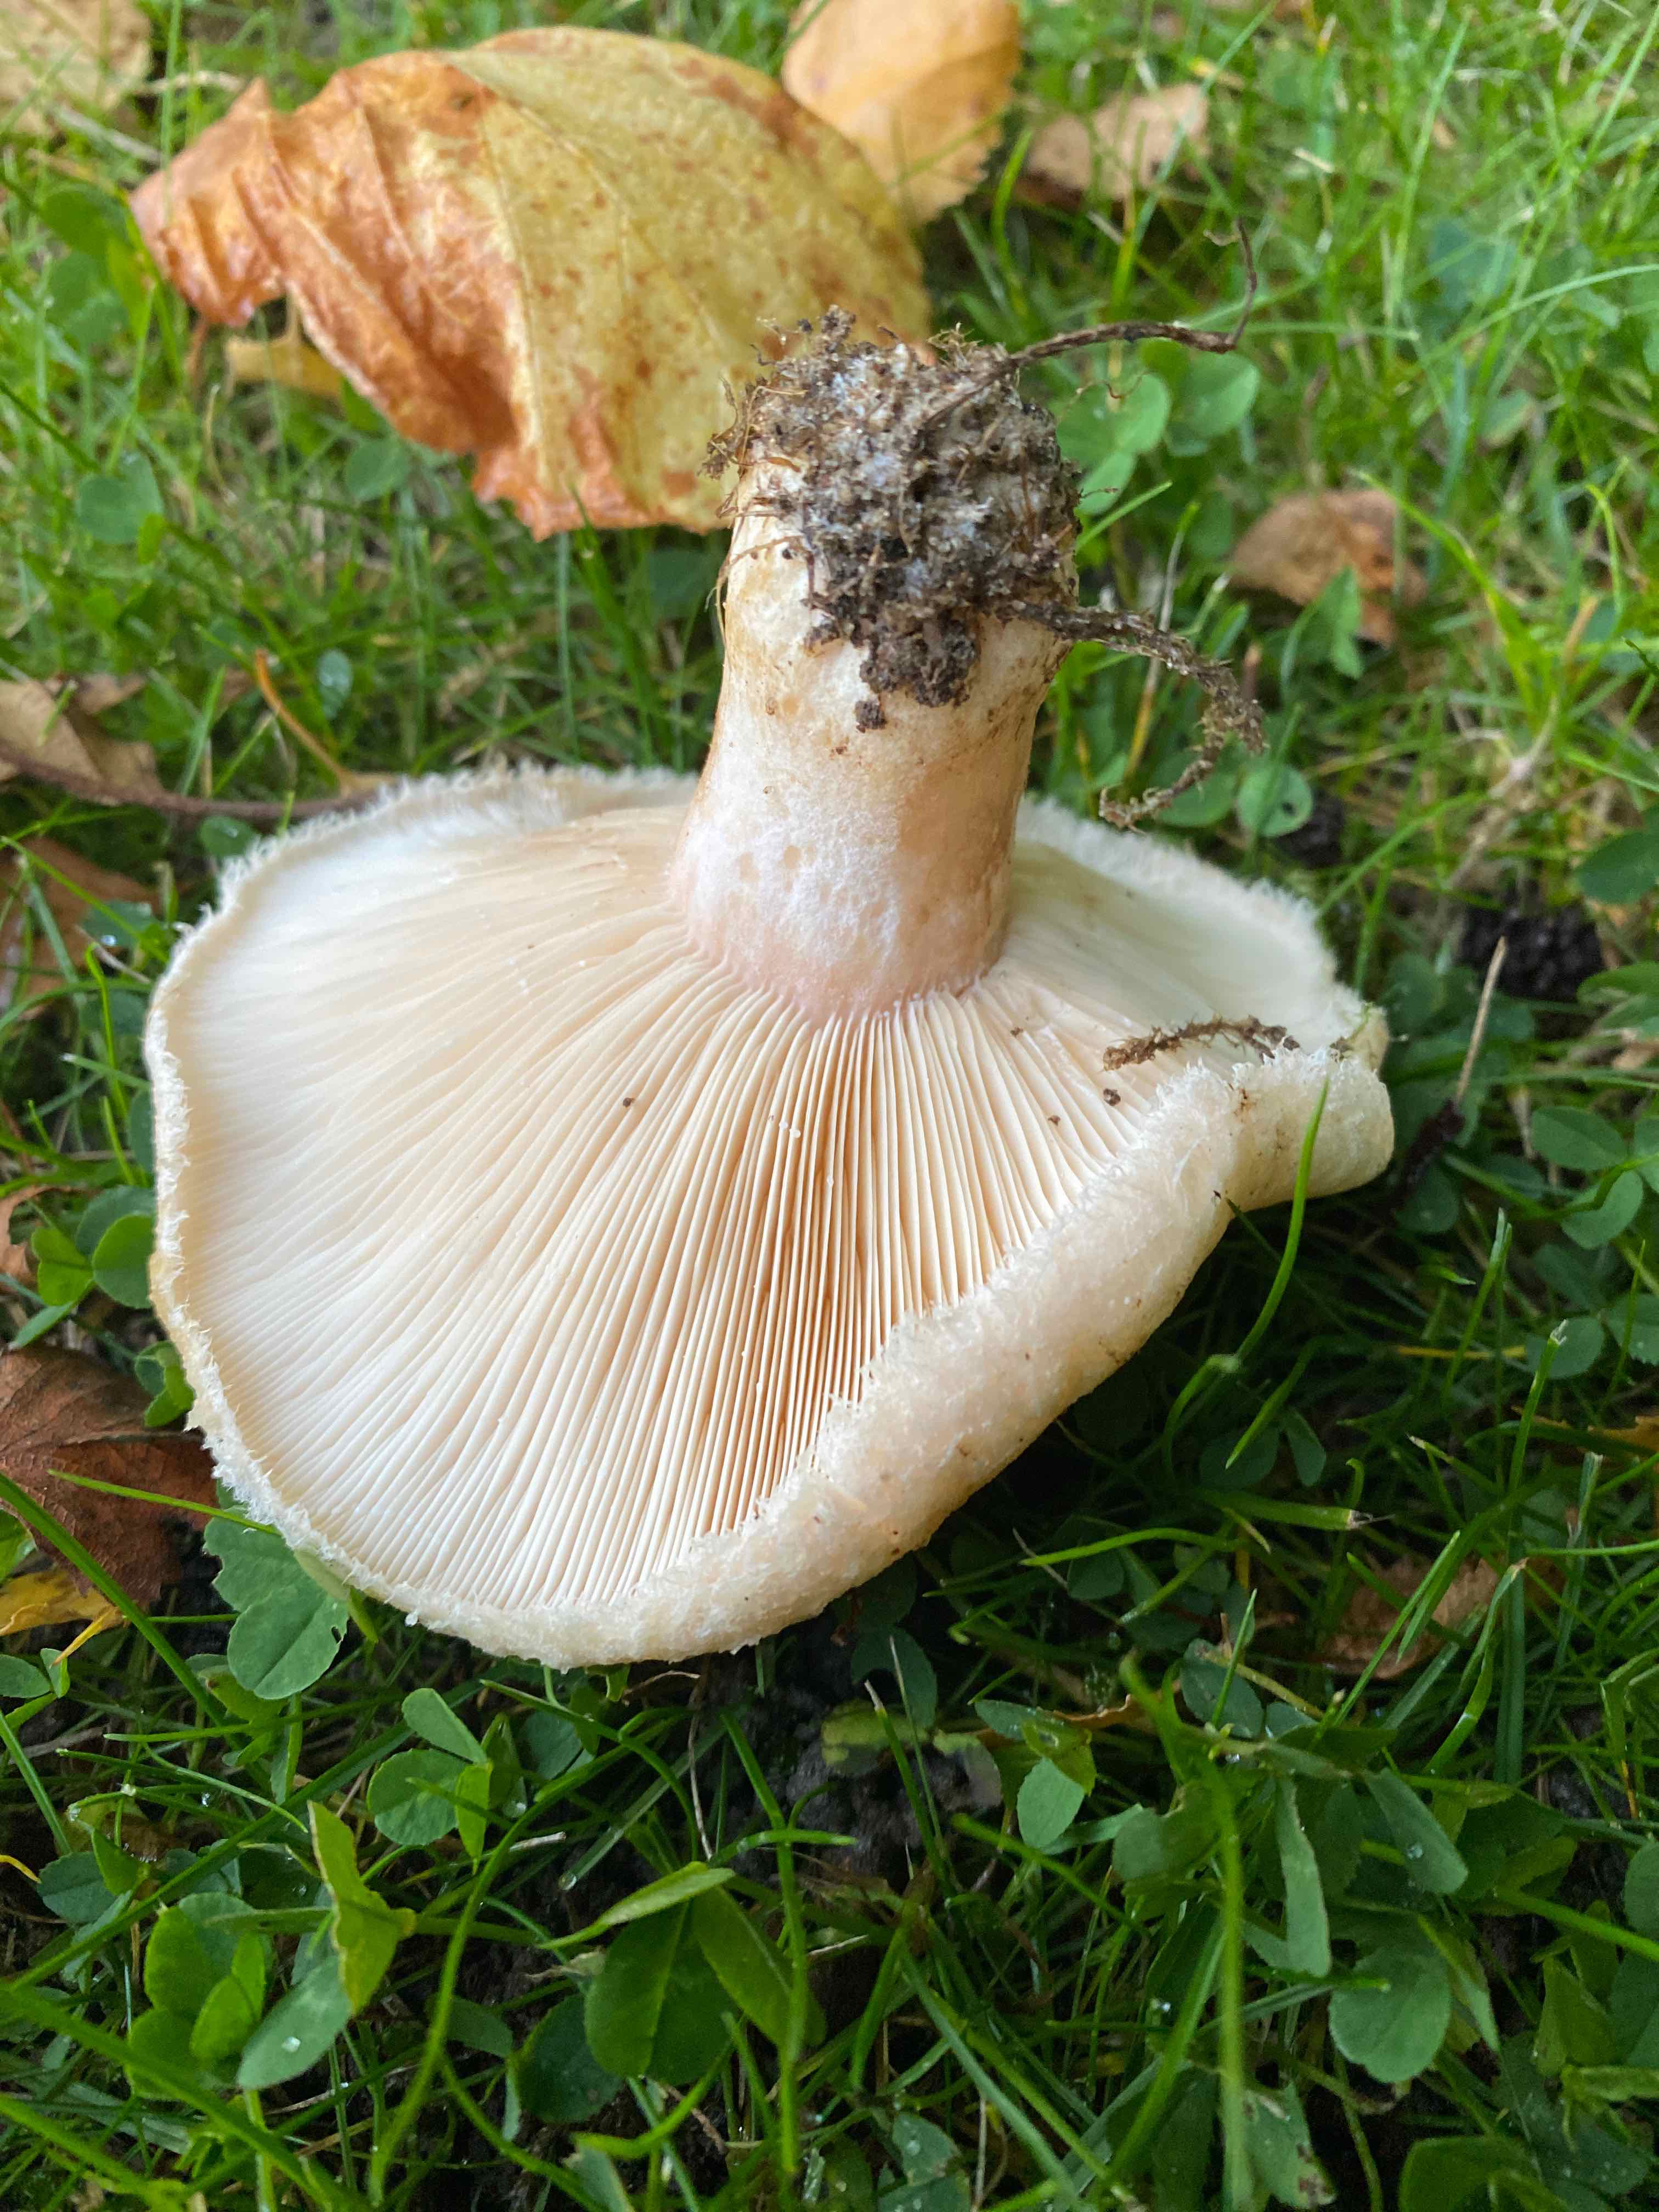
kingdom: Fungi
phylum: Basidiomycota
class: Agaricomycetes
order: Russulales
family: Russulaceae
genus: Lactarius
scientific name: Lactarius pubescens
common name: dunet mælkehat
